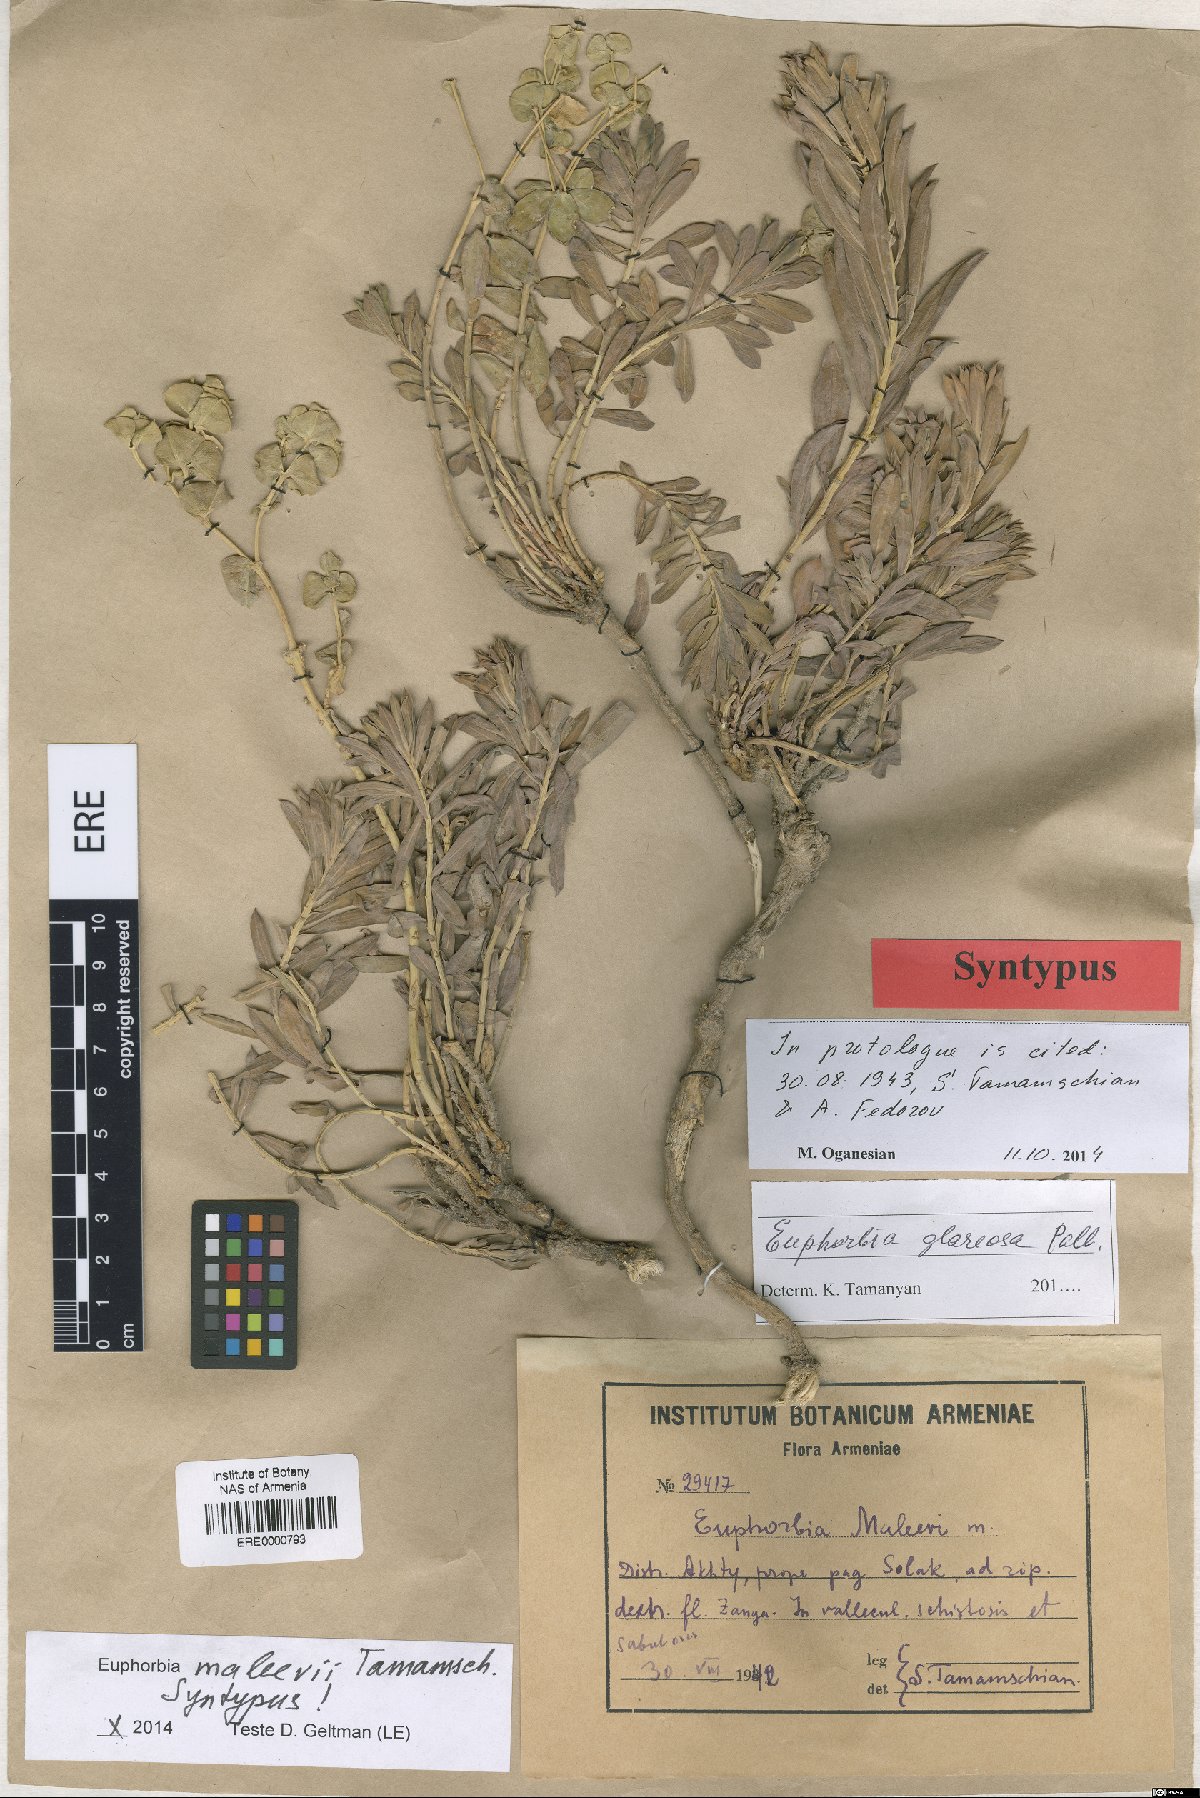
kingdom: Plantae
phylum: Tracheophyta
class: Magnoliopsida
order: Malpighiales
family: Euphorbiaceae
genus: Euphorbia
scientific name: Euphorbia glareosa
